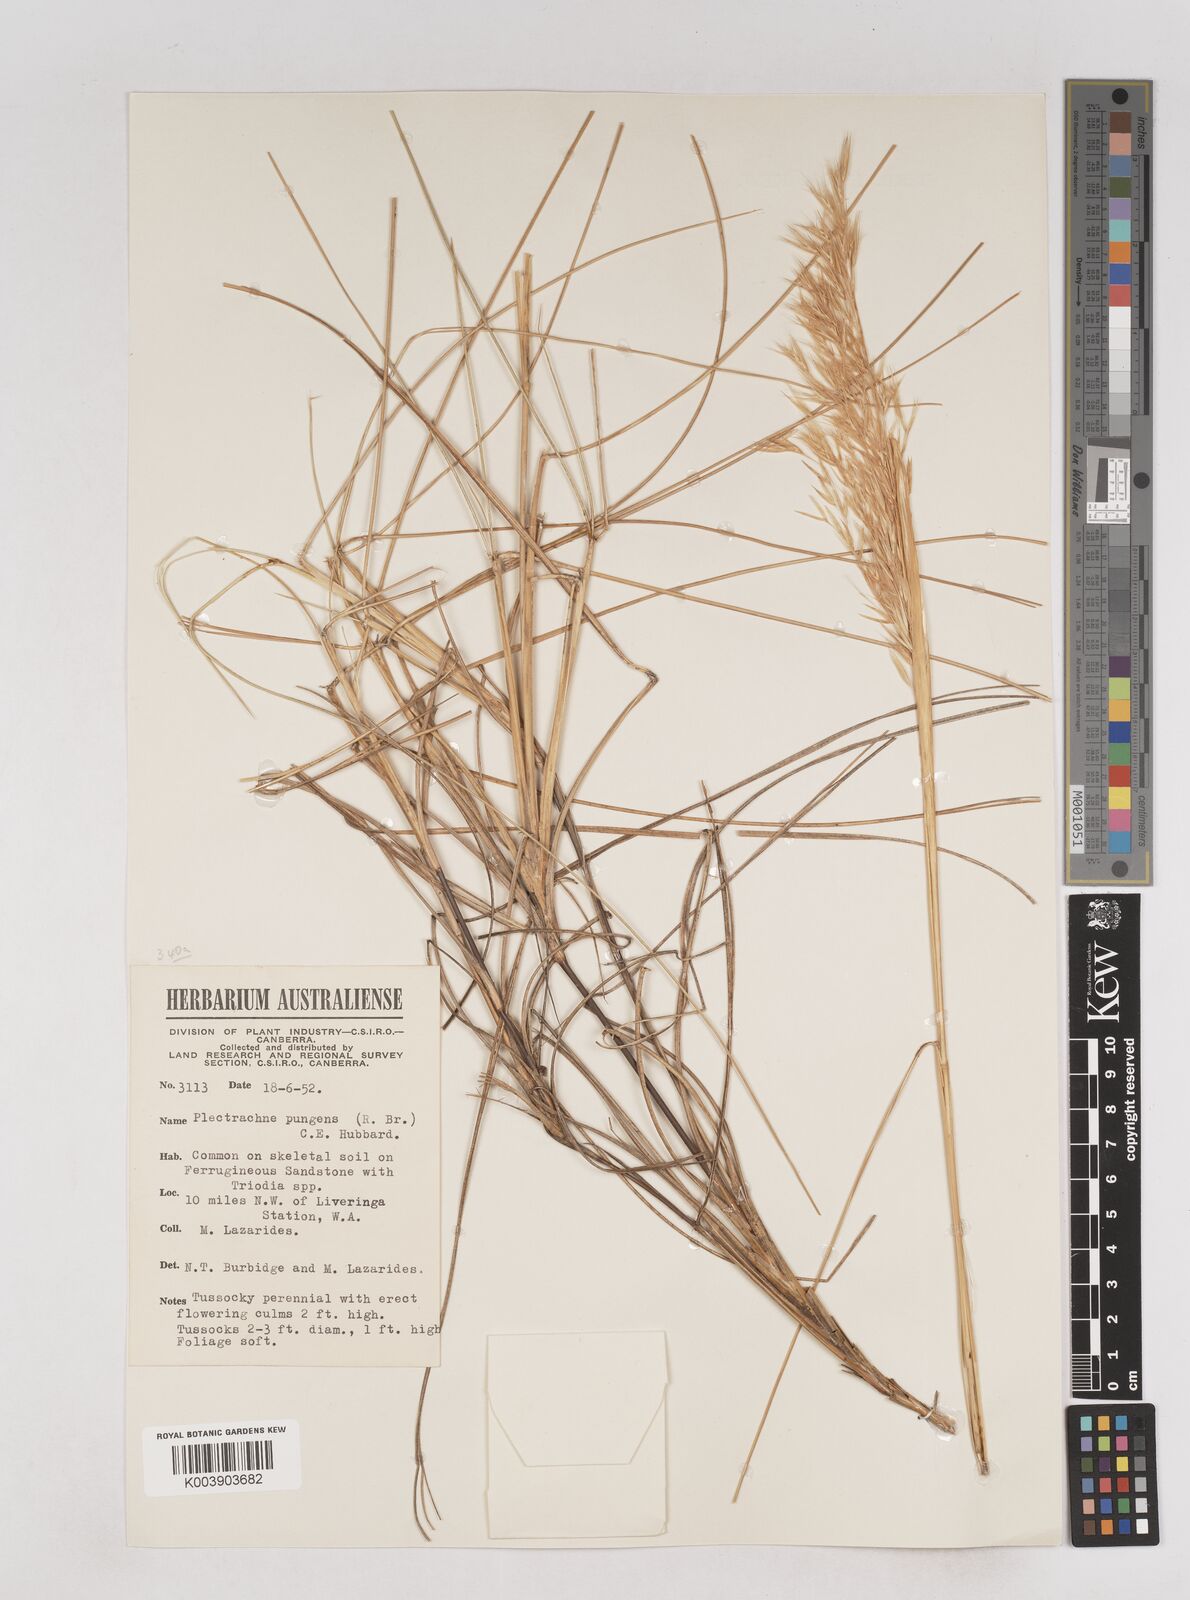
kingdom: Plantae
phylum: Tracheophyta
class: Liliopsida
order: Poales
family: Poaceae
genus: Triodia
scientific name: Triodia bitextura
